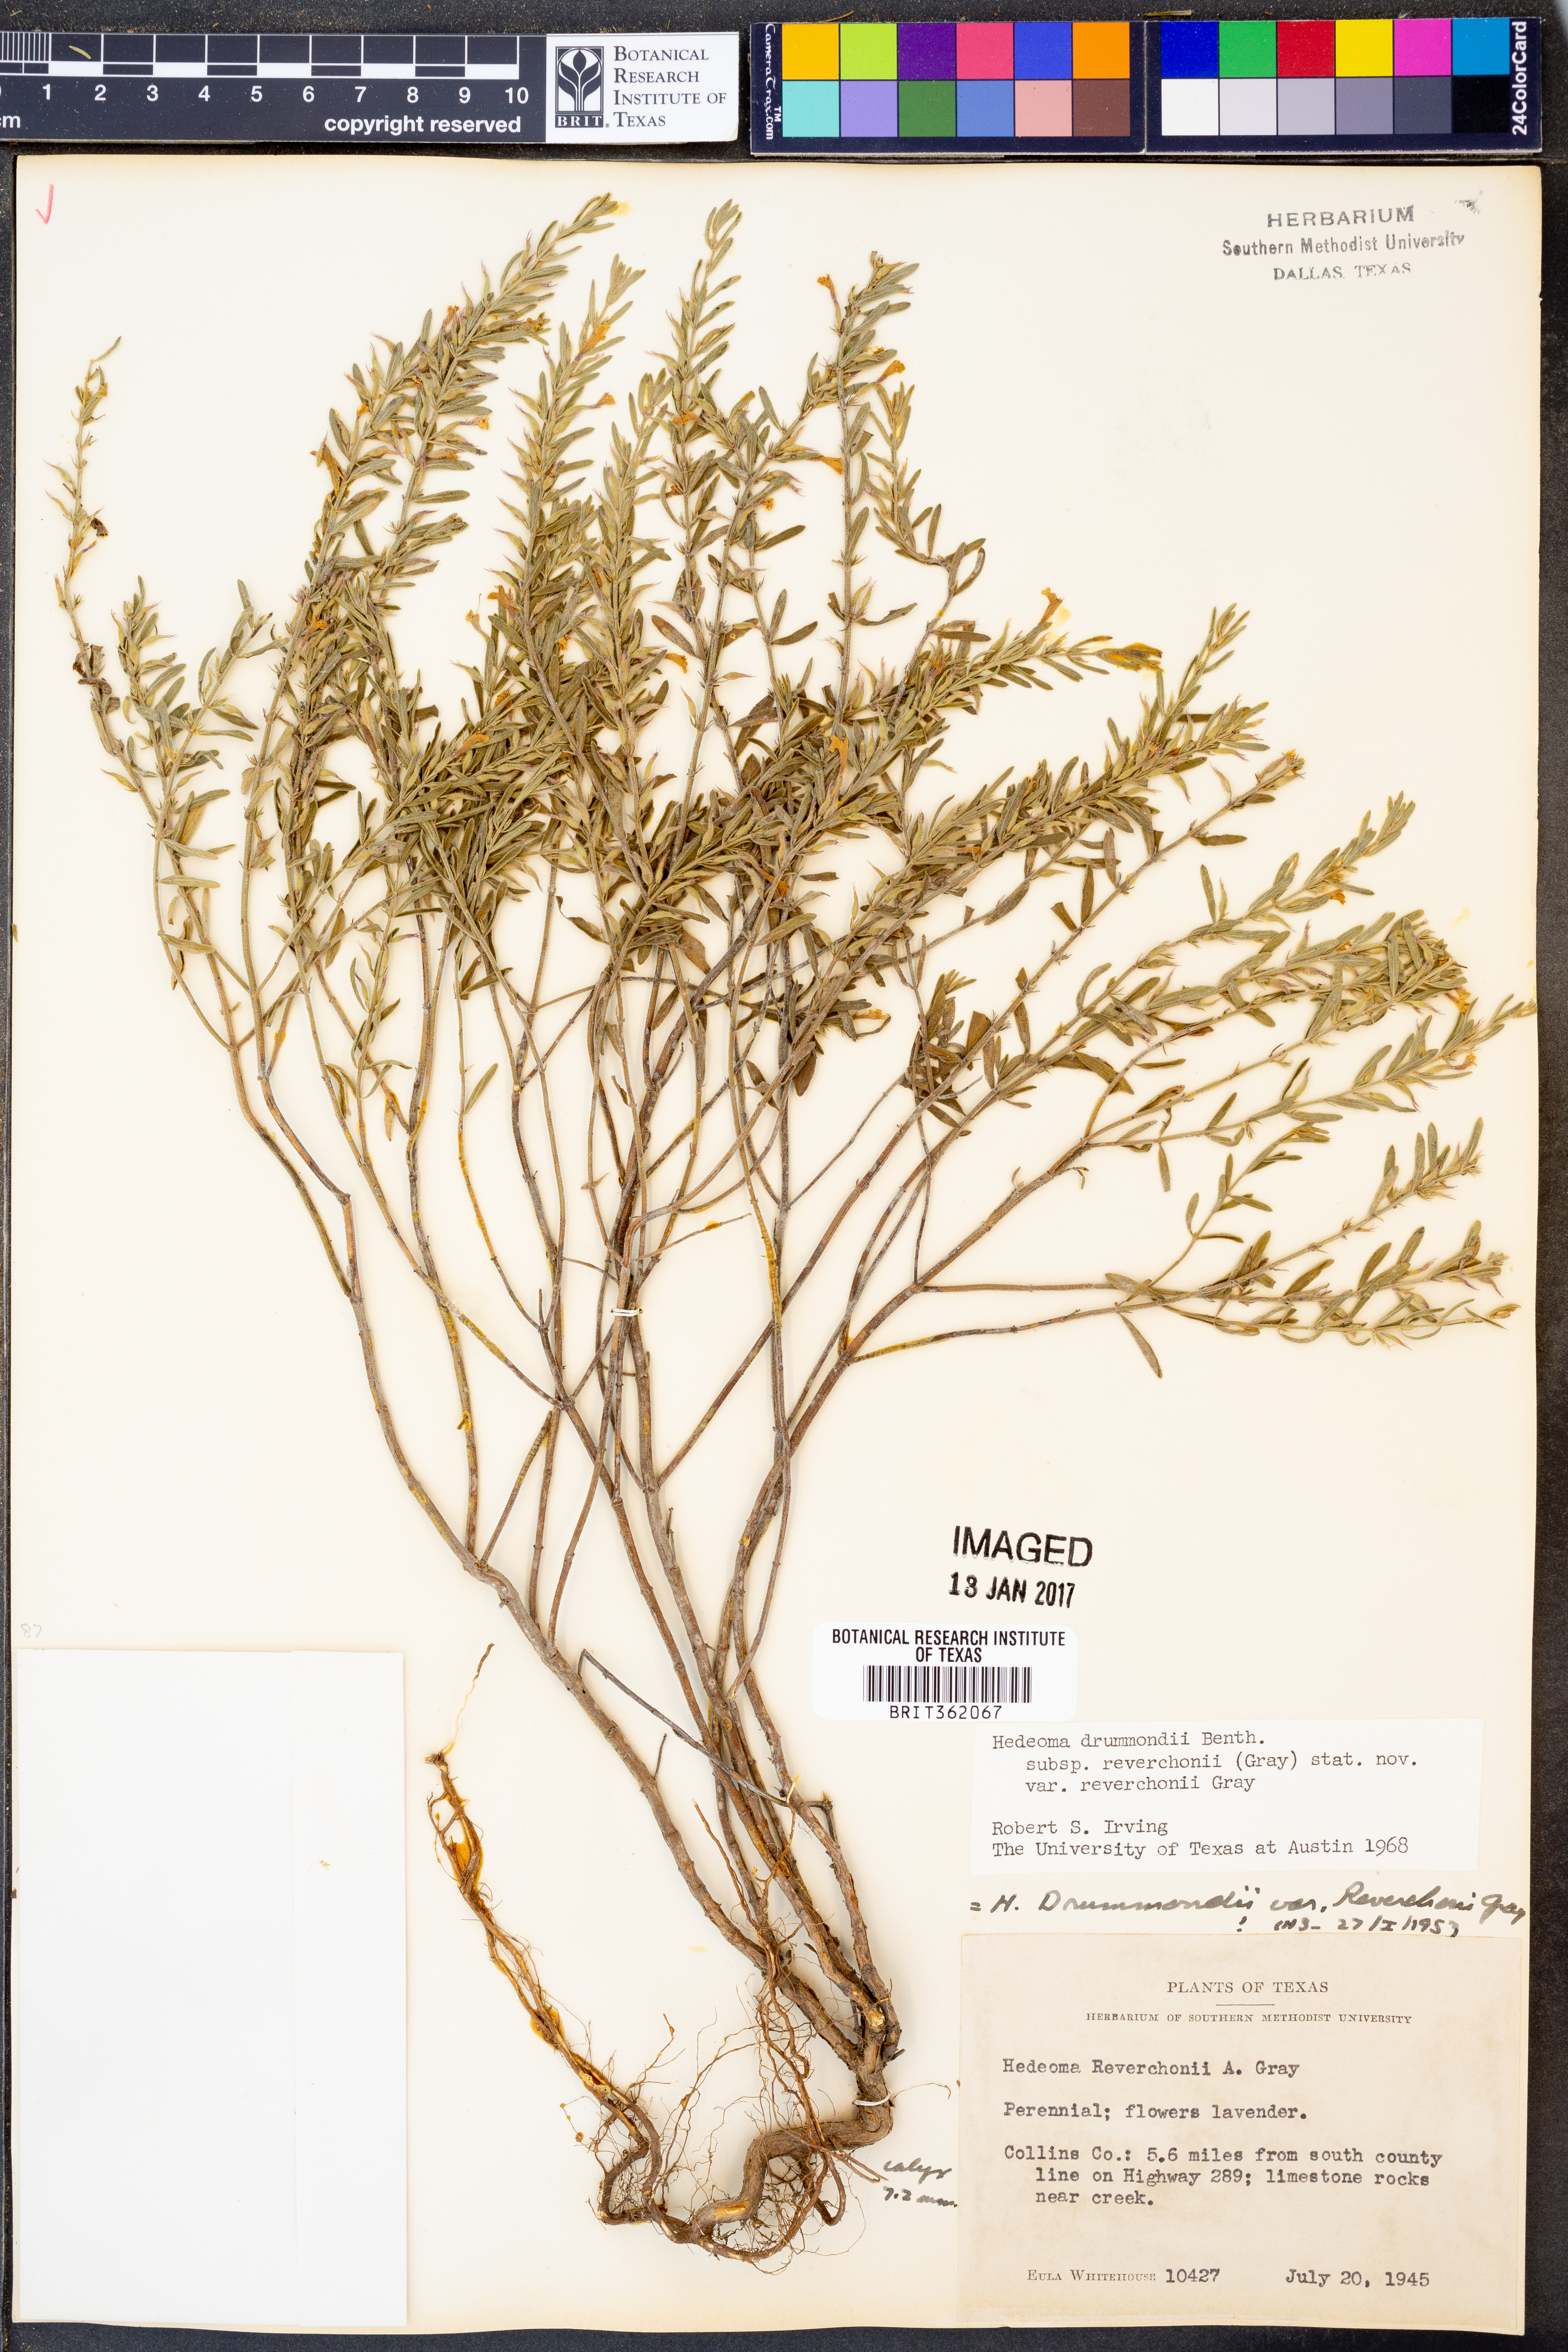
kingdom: Plantae
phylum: Tracheophyta
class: Magnoliopsida
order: Lamiales
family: Lamiaceae
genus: Hedeoma
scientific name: Hedeoma reverchonii
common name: Reverchon's false penny-royal
